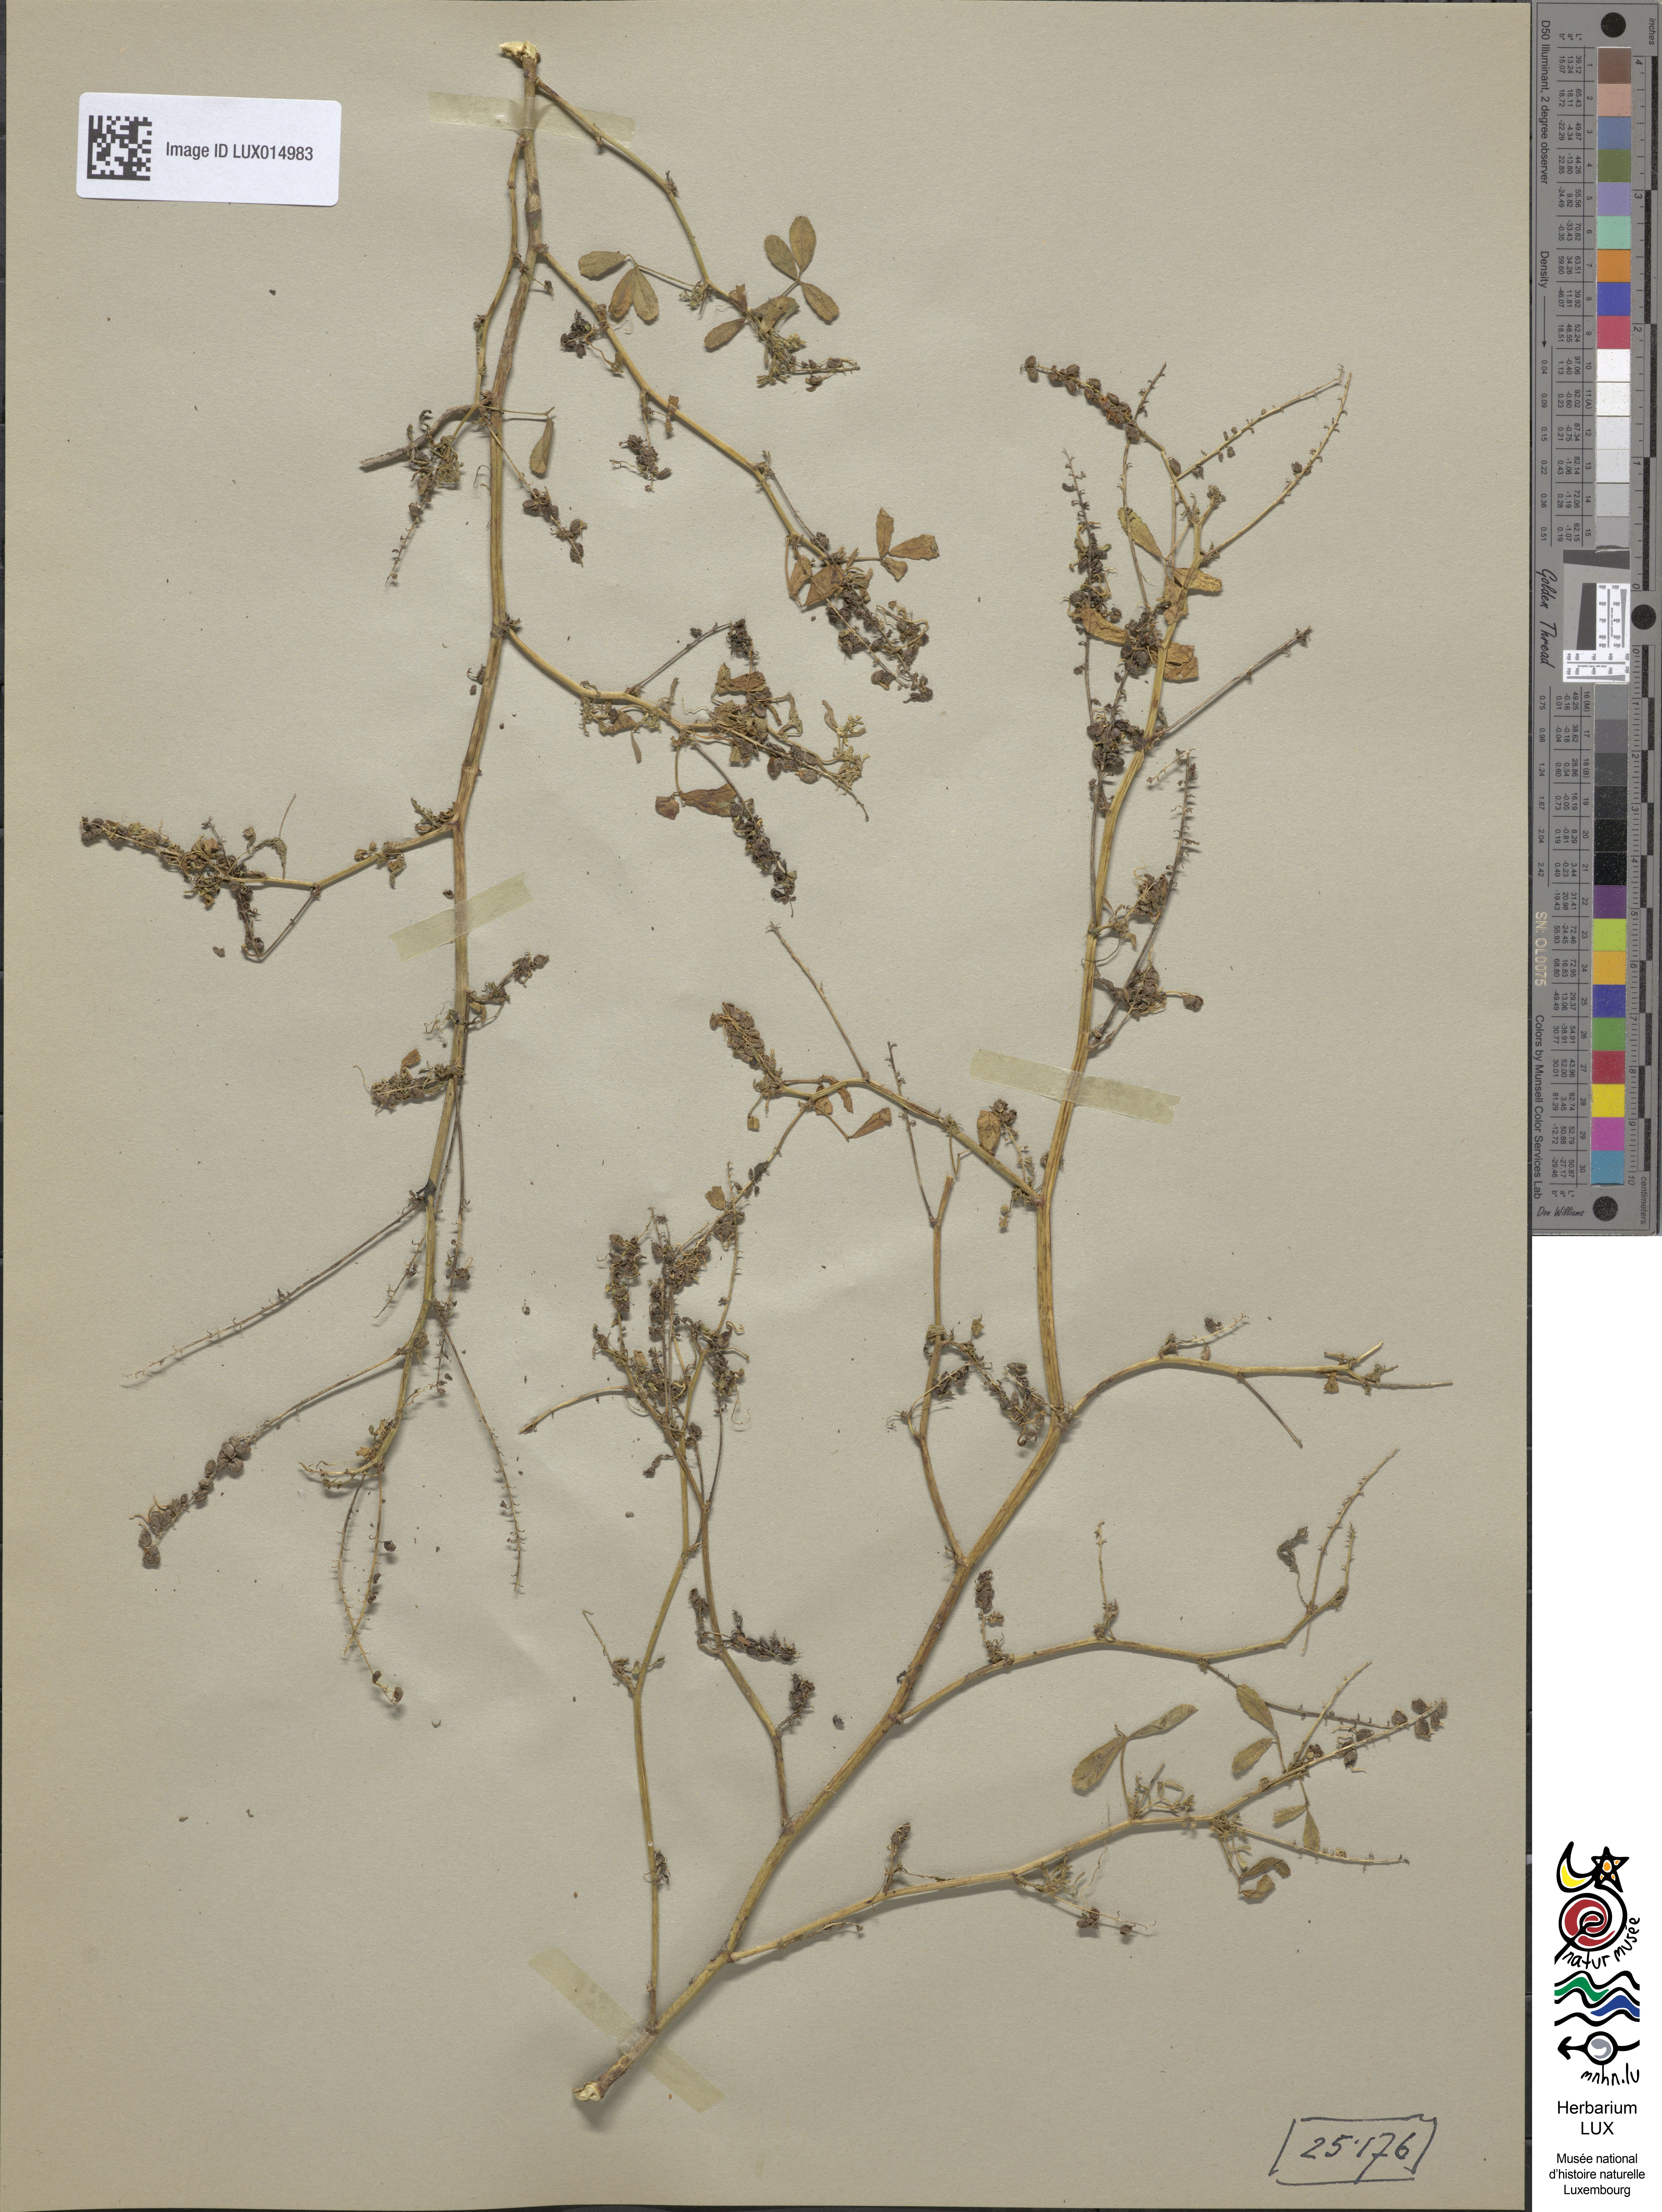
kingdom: Plantae
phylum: Tracheophyta
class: Magnoliopsida
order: Fabales
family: Fabaceae
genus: Melilotus
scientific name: Melilotus indicus
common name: Small melilot
